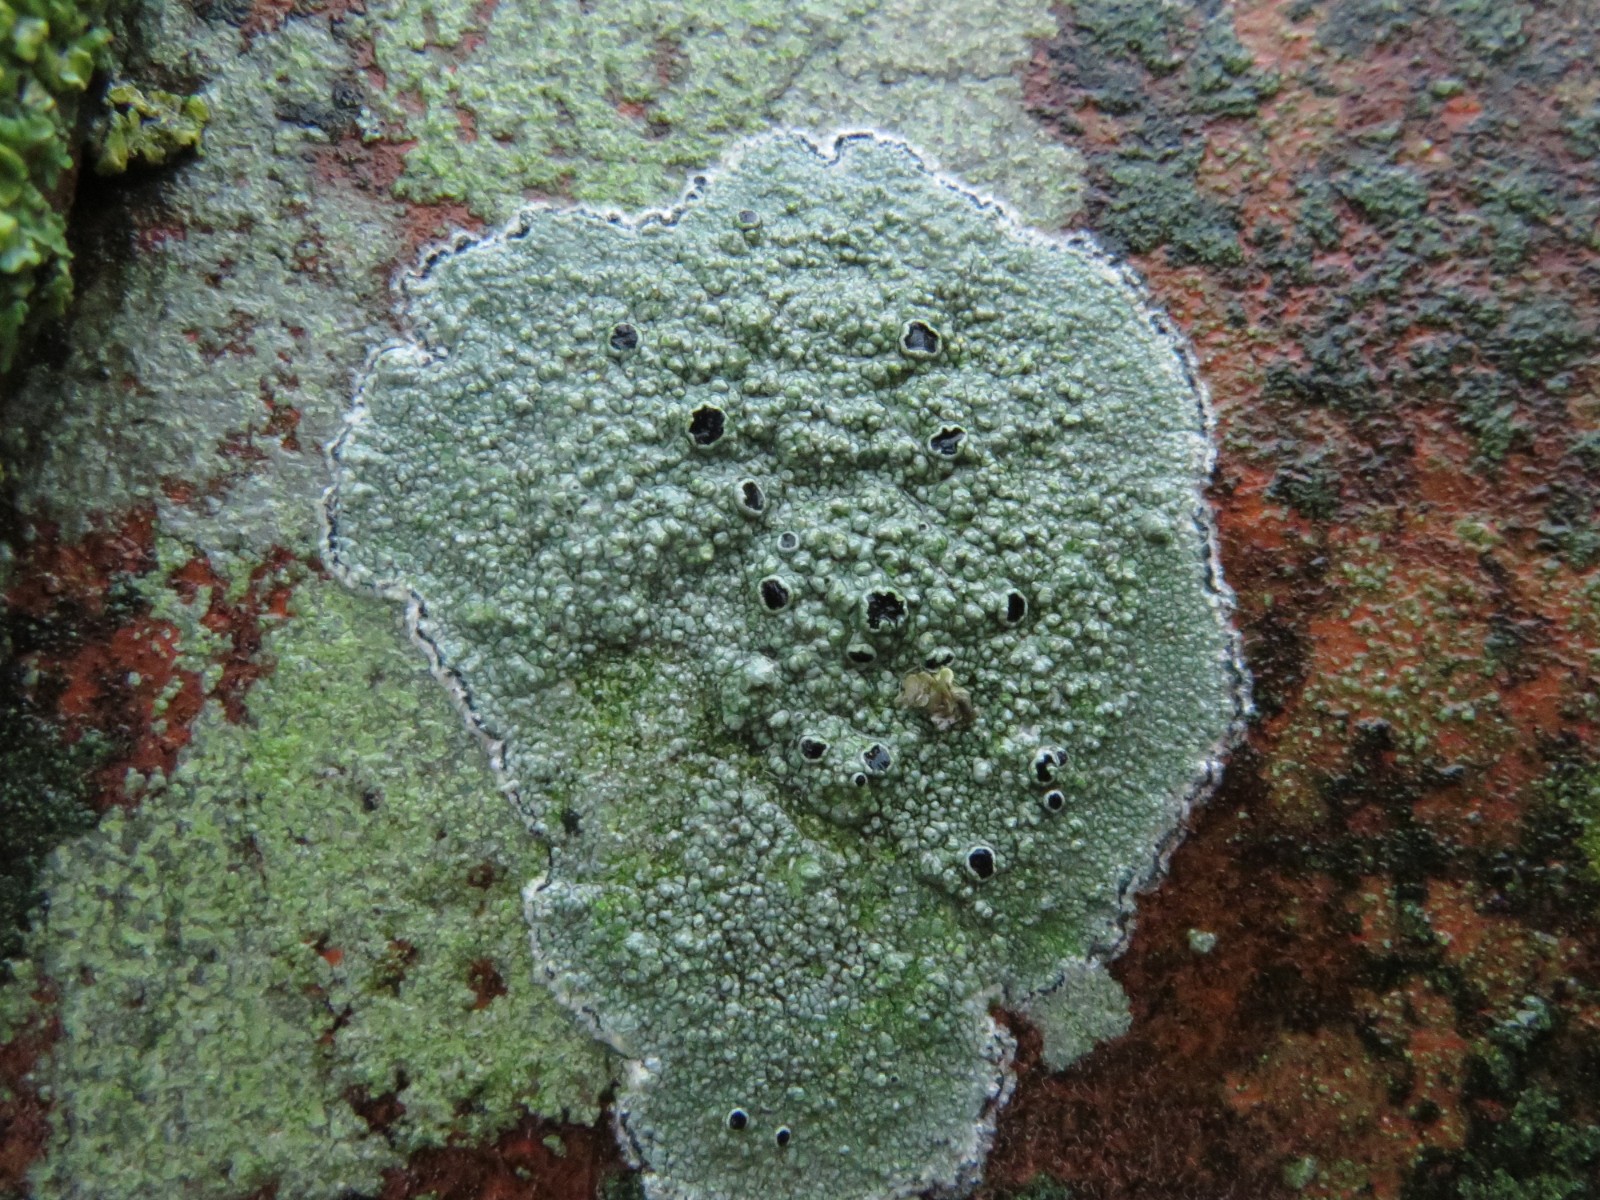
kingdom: Fungi
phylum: Ascomycota
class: Lecanoromycetes
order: Lecanorales
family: Tephromelataceae
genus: Tephromela
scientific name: Tephromela atra
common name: sortfrugtet kantskivelav
